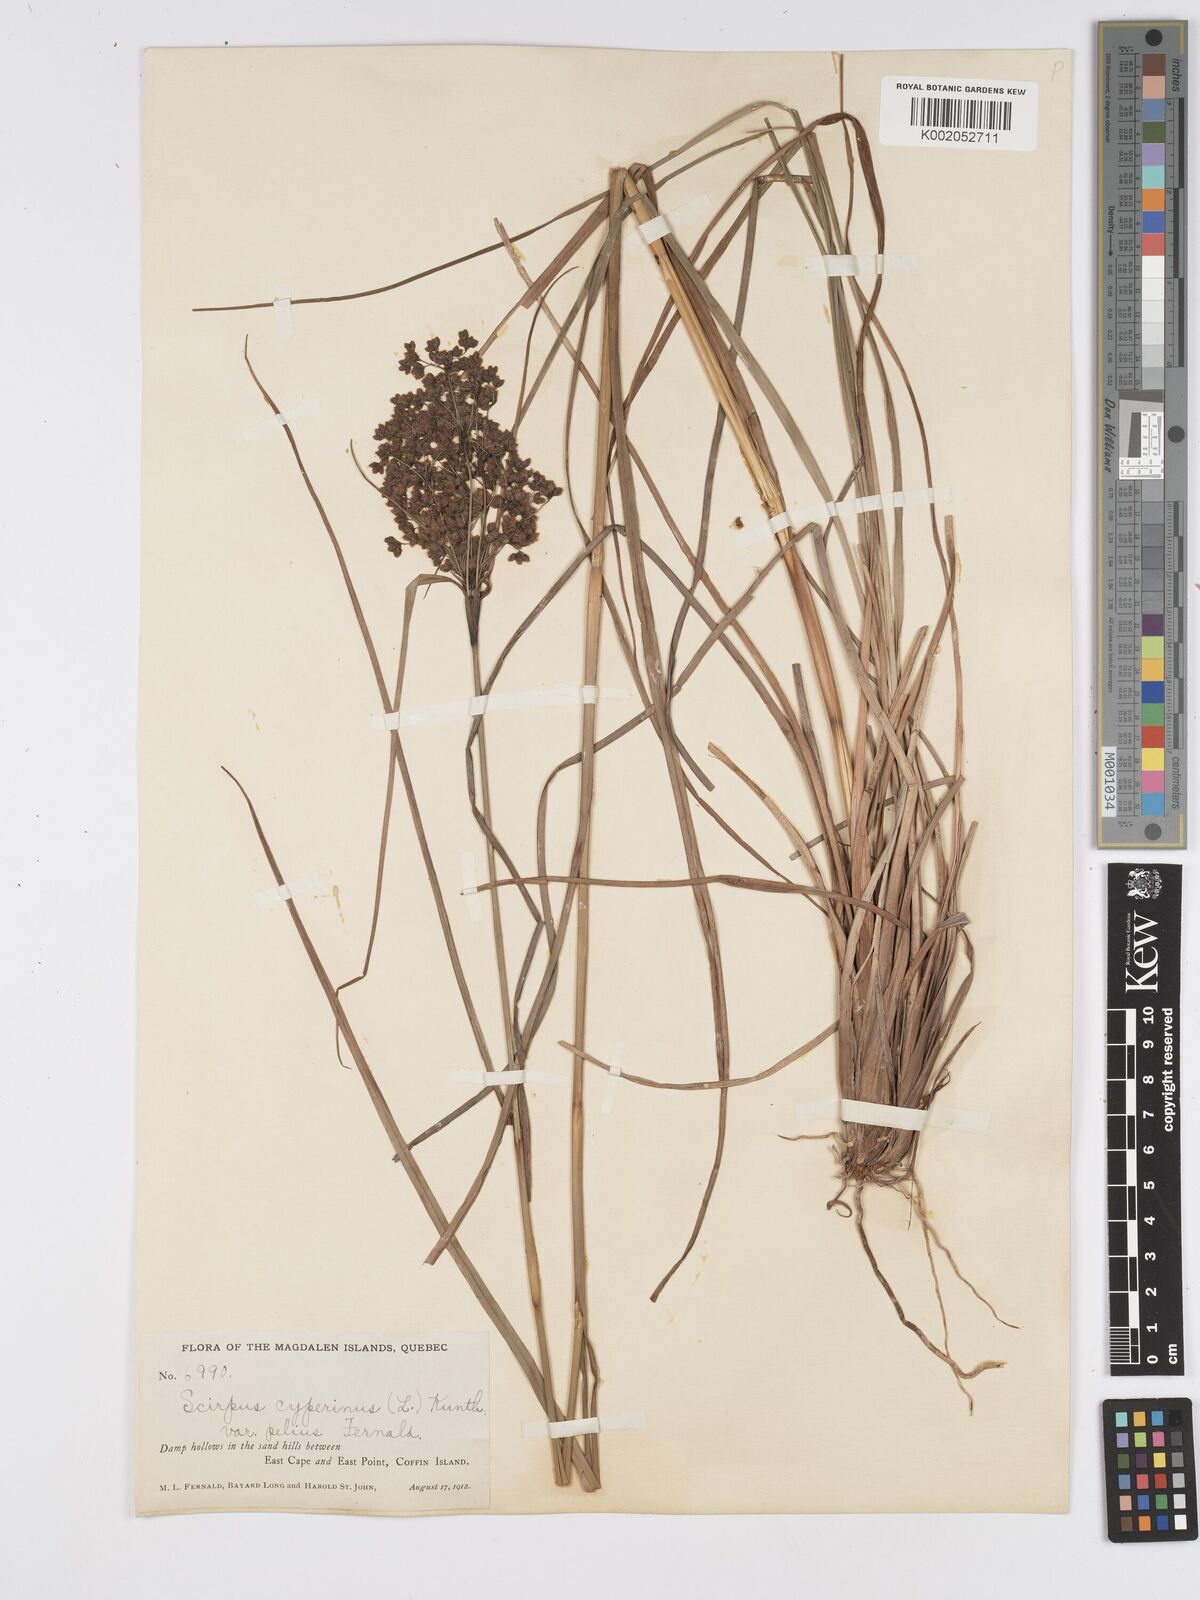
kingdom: Plantae
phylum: Tracheophyta
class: Liliopsida
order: Poales
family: Cyperaceae
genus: Scirpus
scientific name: Scirpus cyperinus
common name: Black-sheathed bulrush
